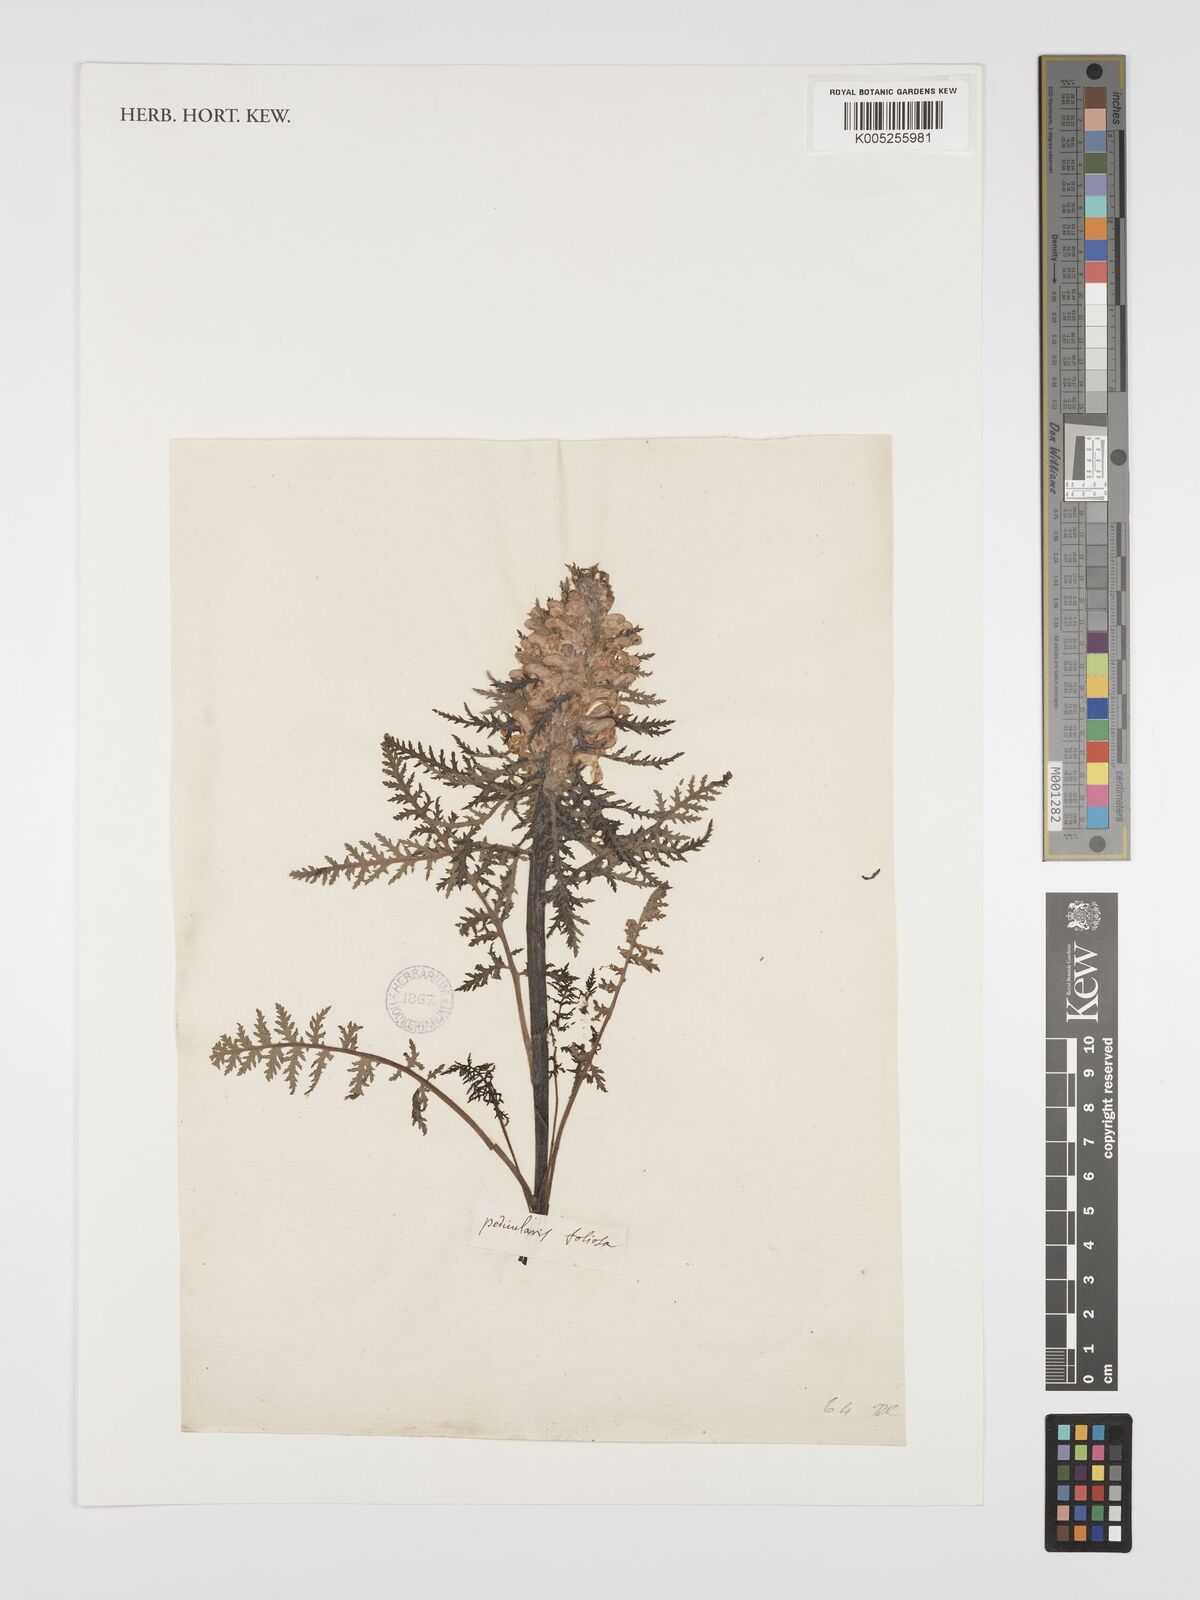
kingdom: Plantae
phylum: Tracheophyta
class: Magnoliopsida
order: Lamiales
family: Orobanchaceae
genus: Pedicularis
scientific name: Pedicularis foliosa
